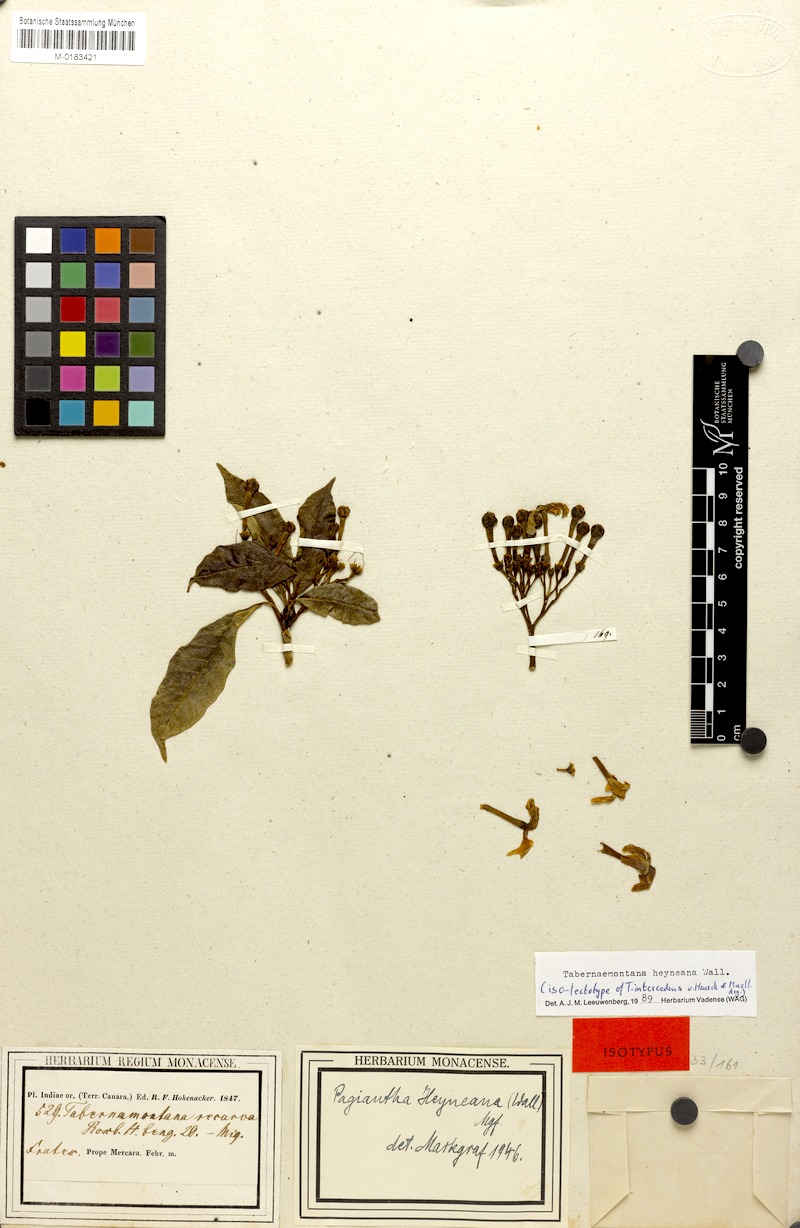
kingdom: Plantae
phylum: Tracheophyta
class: Magnoliopsida
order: Gentianales
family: Apocynaceae
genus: Tabernaemontana
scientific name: Tabernaemontana alternifolia
